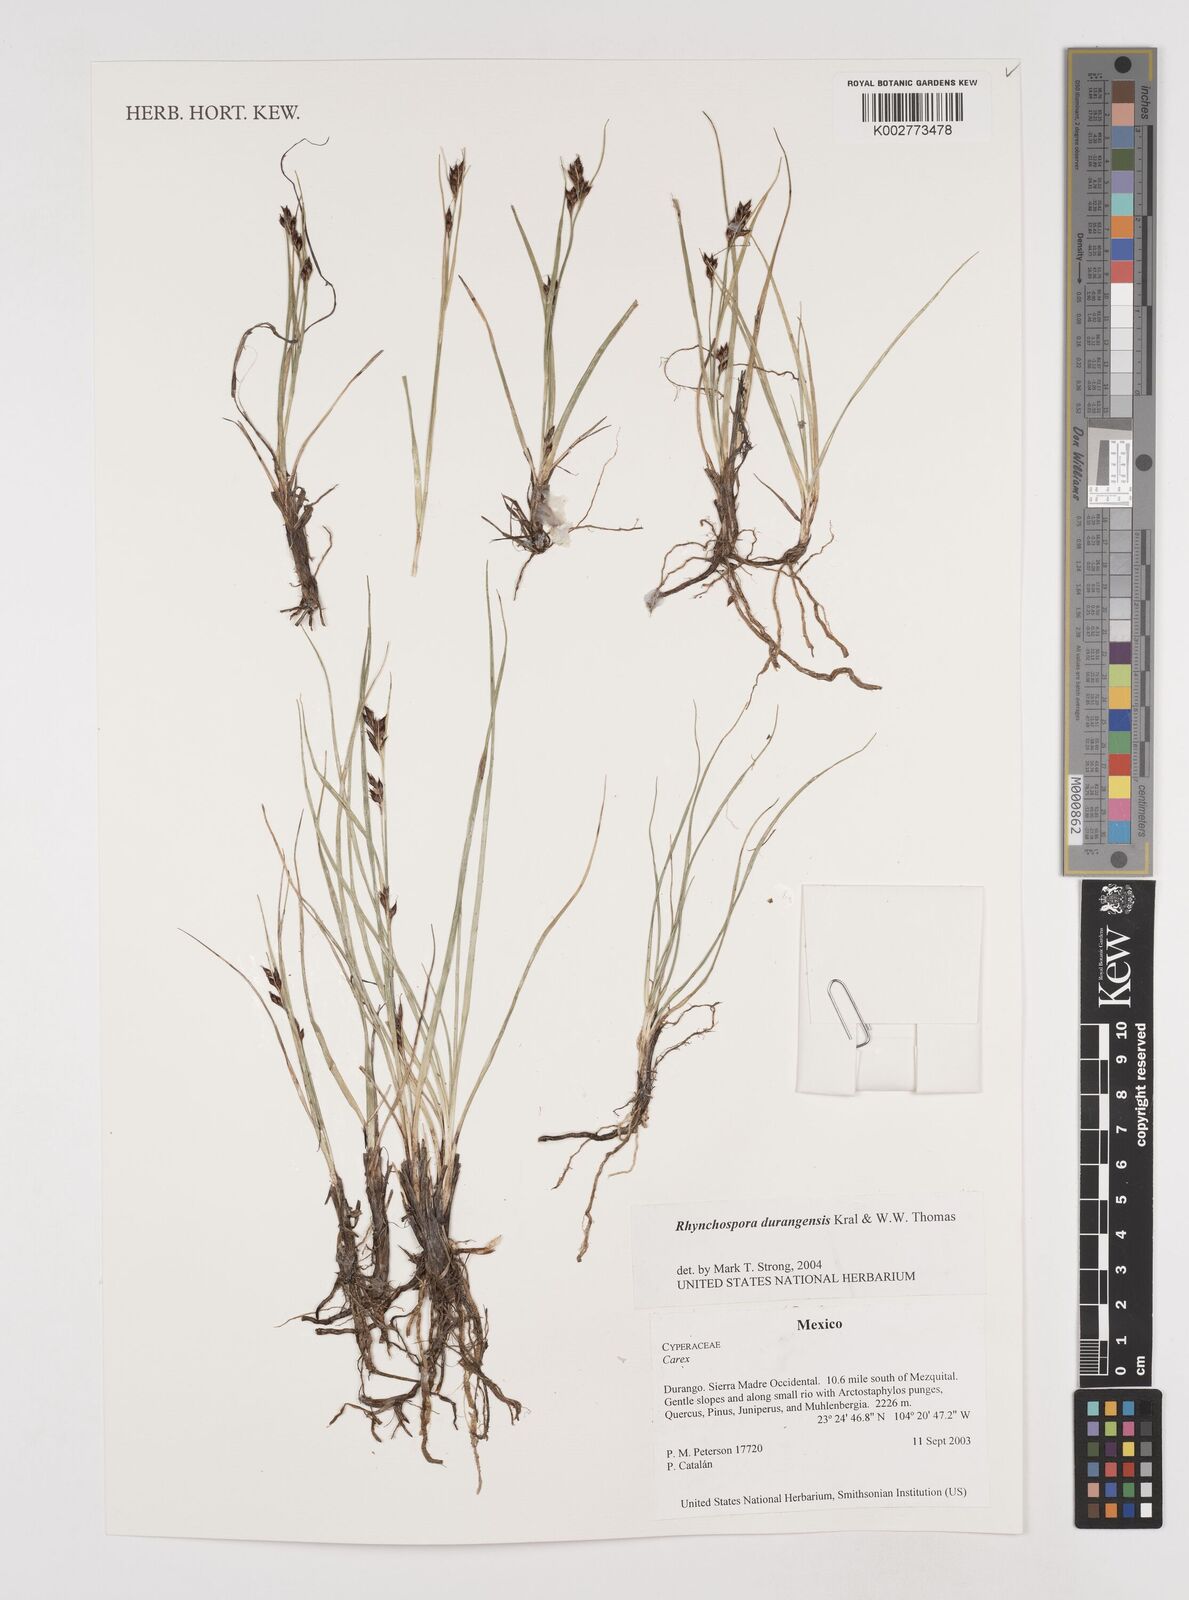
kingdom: Plantae
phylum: Tracheophyta
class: Liliopsida
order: Poales
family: Cyperaceae
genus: Rhynchospora
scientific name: Rhynchospora durangensis
